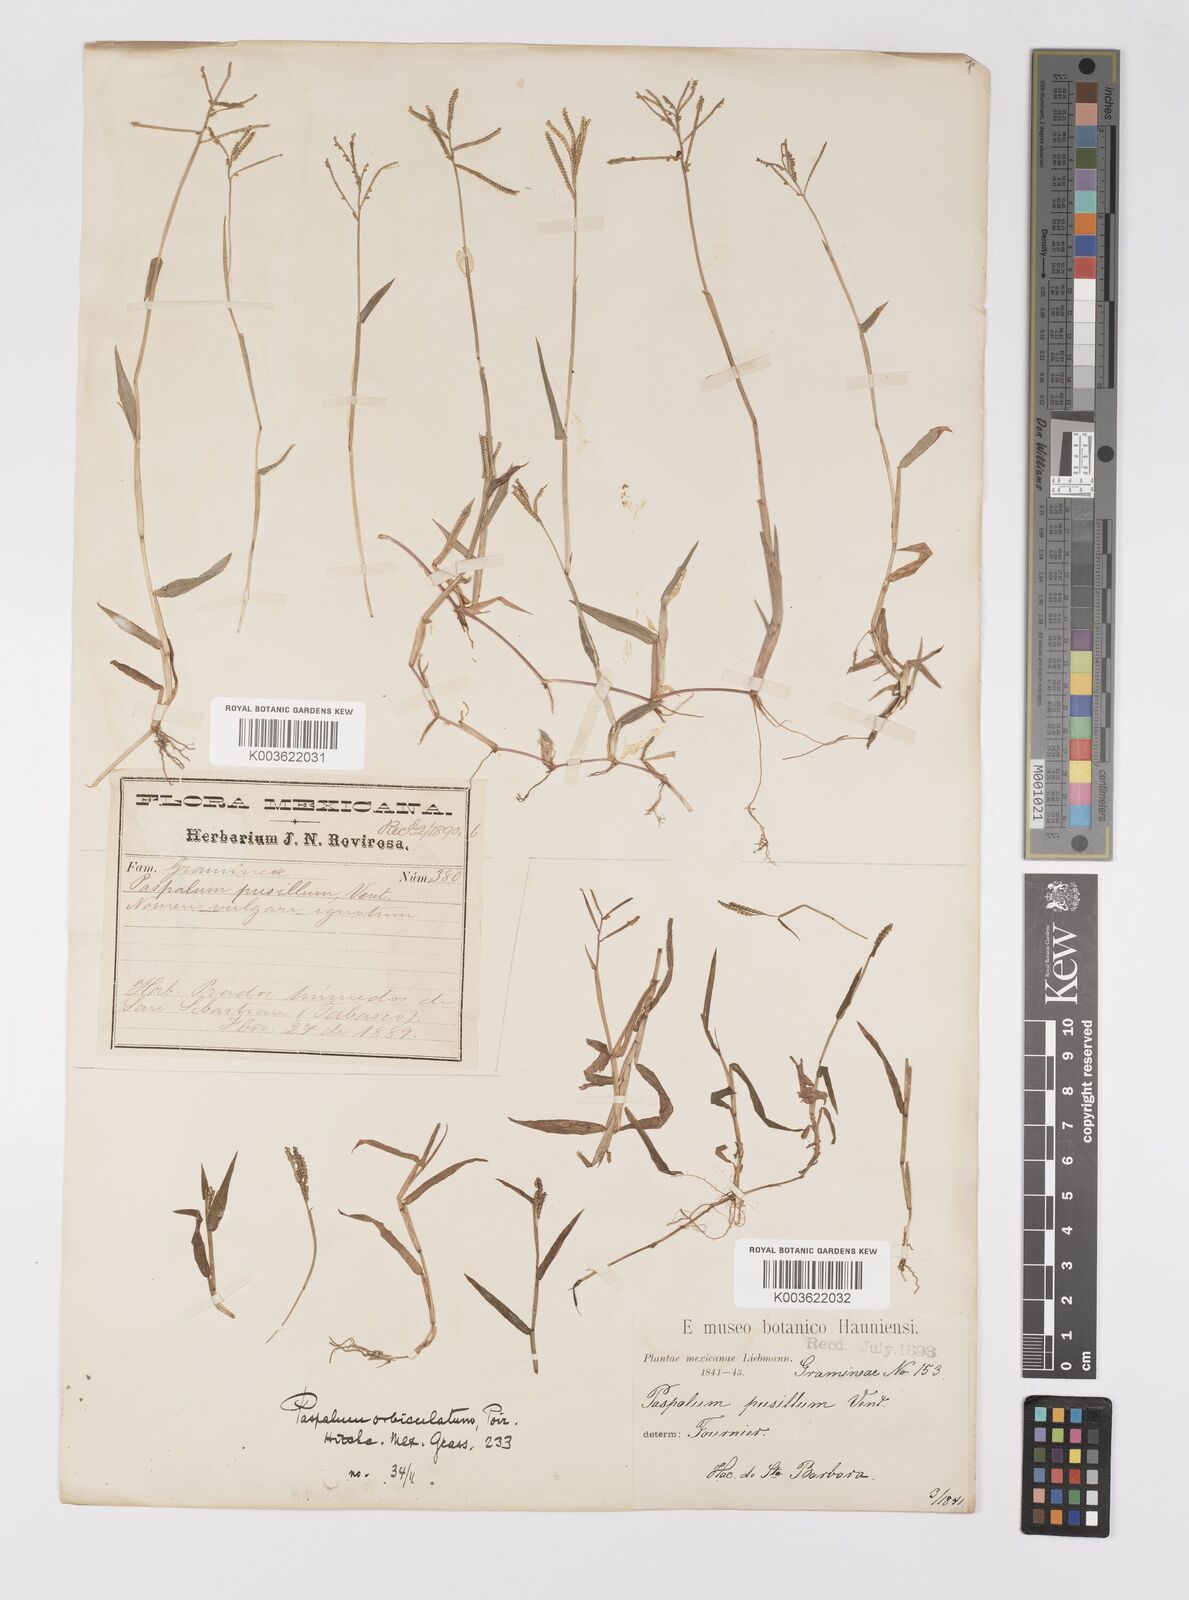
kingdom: Plantae
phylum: Tracheophyta
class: Liliopsida
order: Poales
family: Poaceae
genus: Paspalum
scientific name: Paspalum orbiculatum
